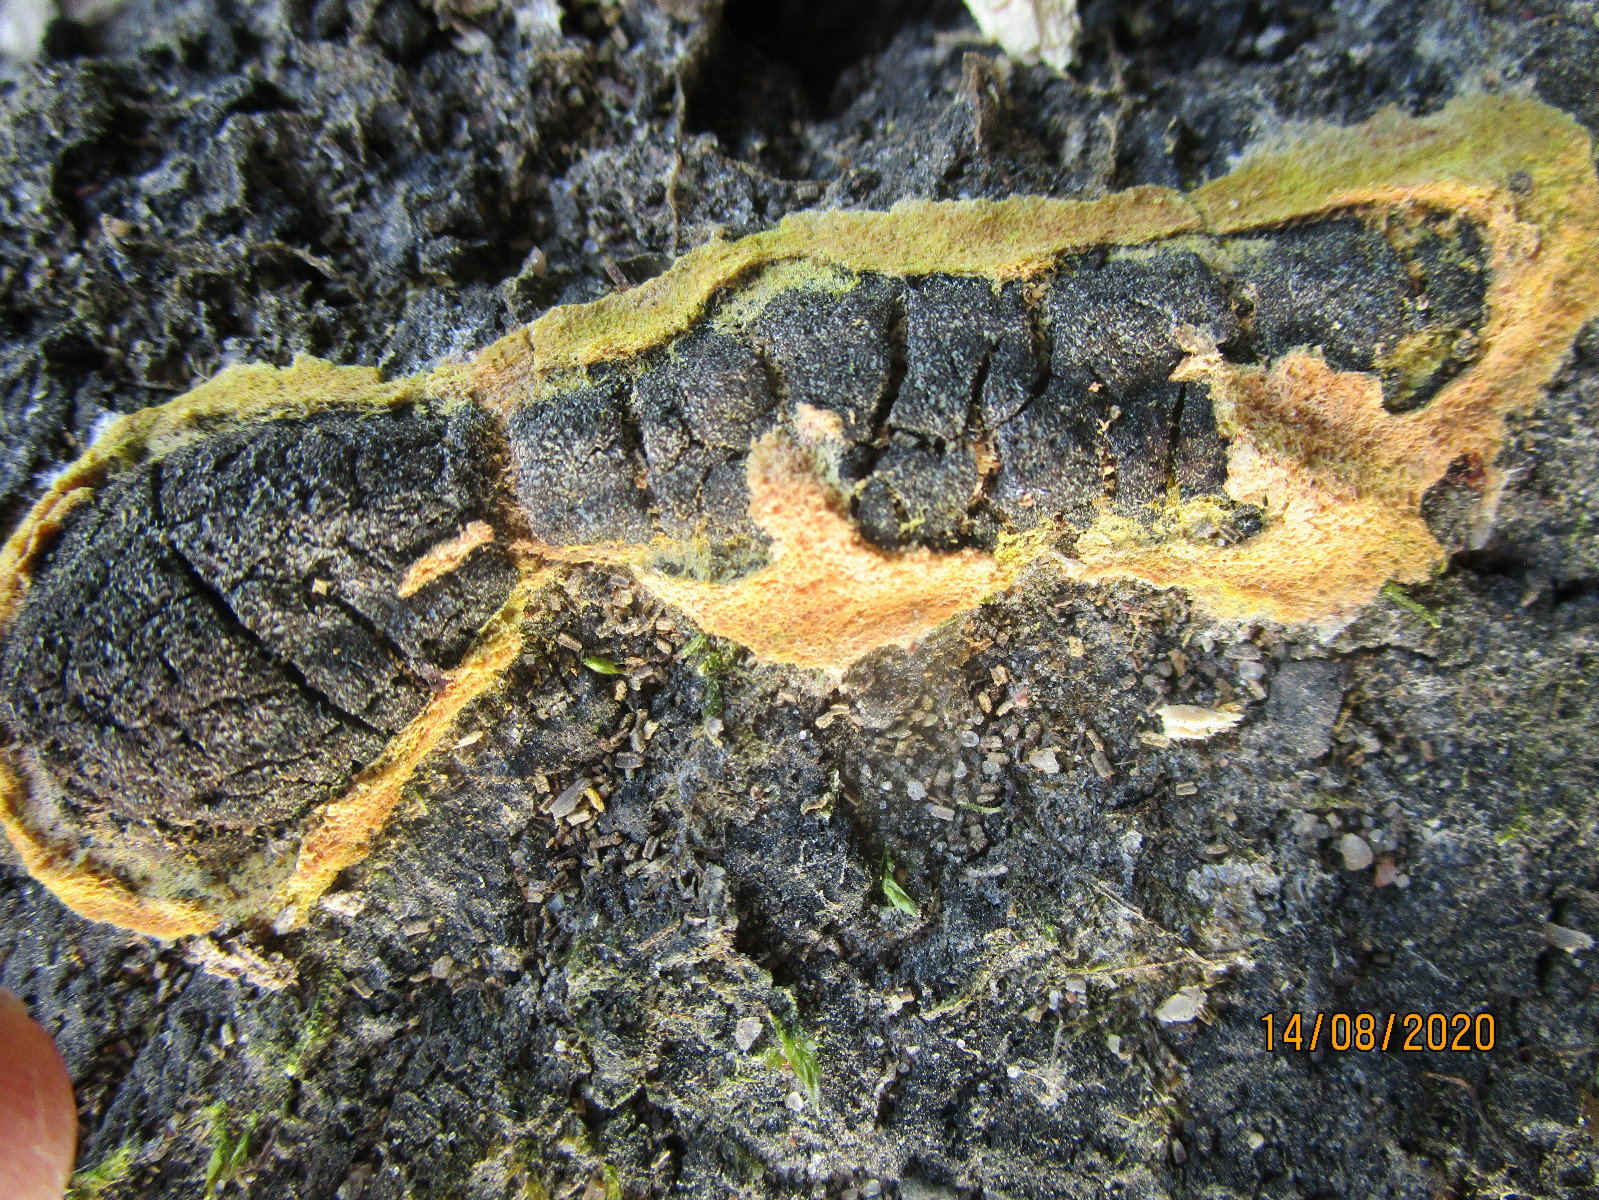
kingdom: Protozoa
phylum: Mycetozoa
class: Myxomycetes
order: Physarales
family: Physaraceae
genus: Fuligo
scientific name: Fuligo septica
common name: Dog vomit slime mold
